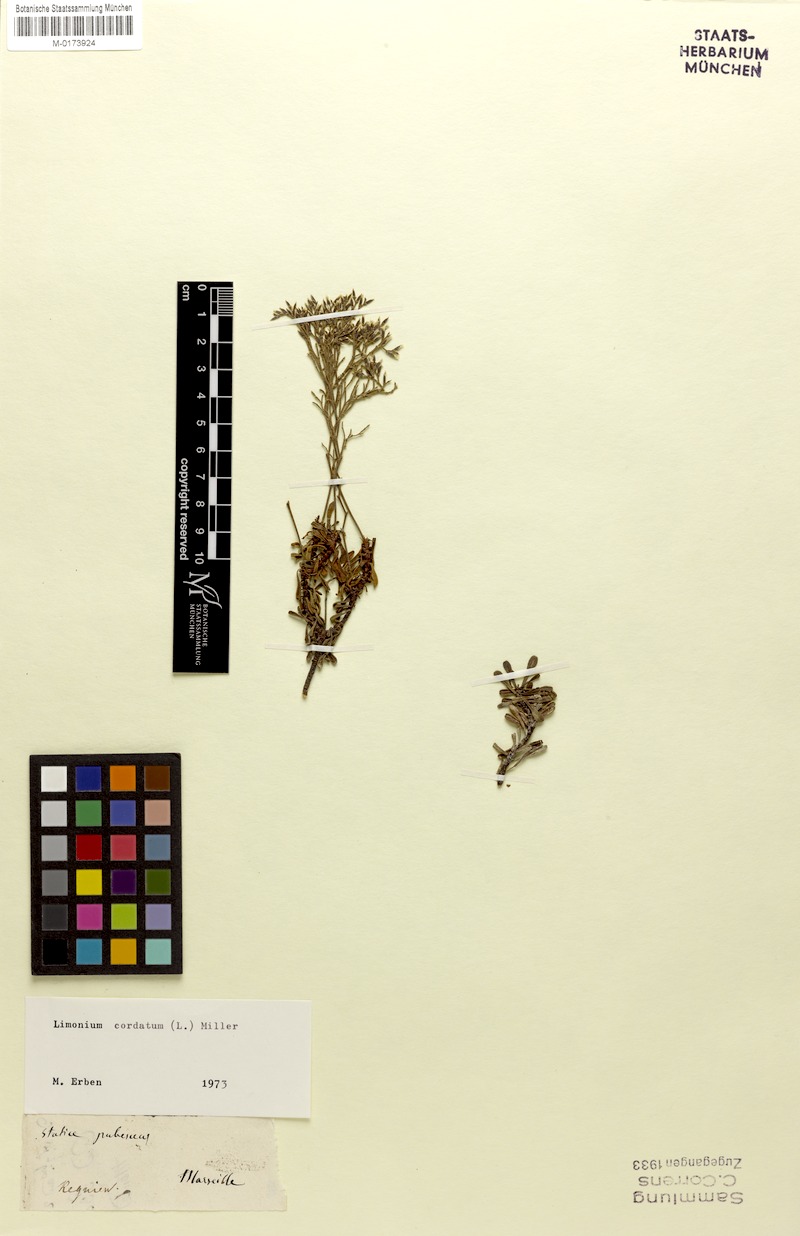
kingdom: Plantae
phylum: Tracheophyta
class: Magnoliopsida
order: Caryophyllales
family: Plumbaginaceae
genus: Limonium
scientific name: Limonium cordatum
